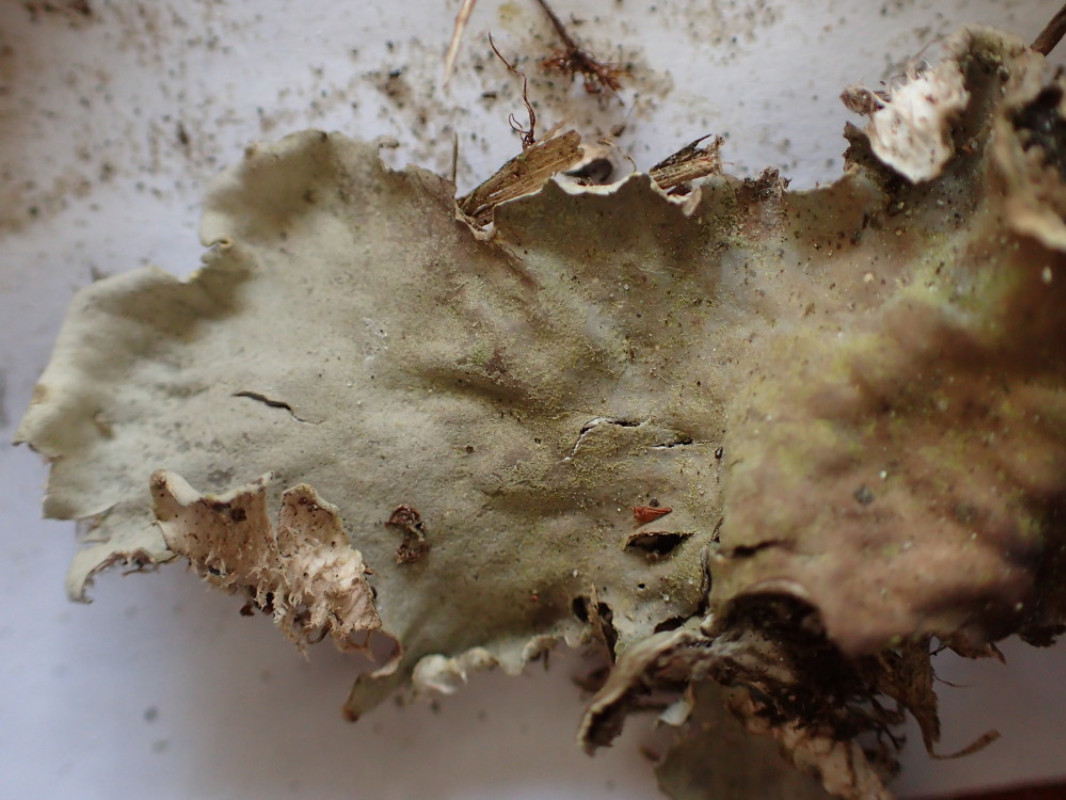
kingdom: Fungi
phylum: Ascomycota
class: Lecanoromycetes
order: Peltigerales
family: Peltigeraceae
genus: Peltigera
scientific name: Peltigera canina
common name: hunde-skjoldlav
